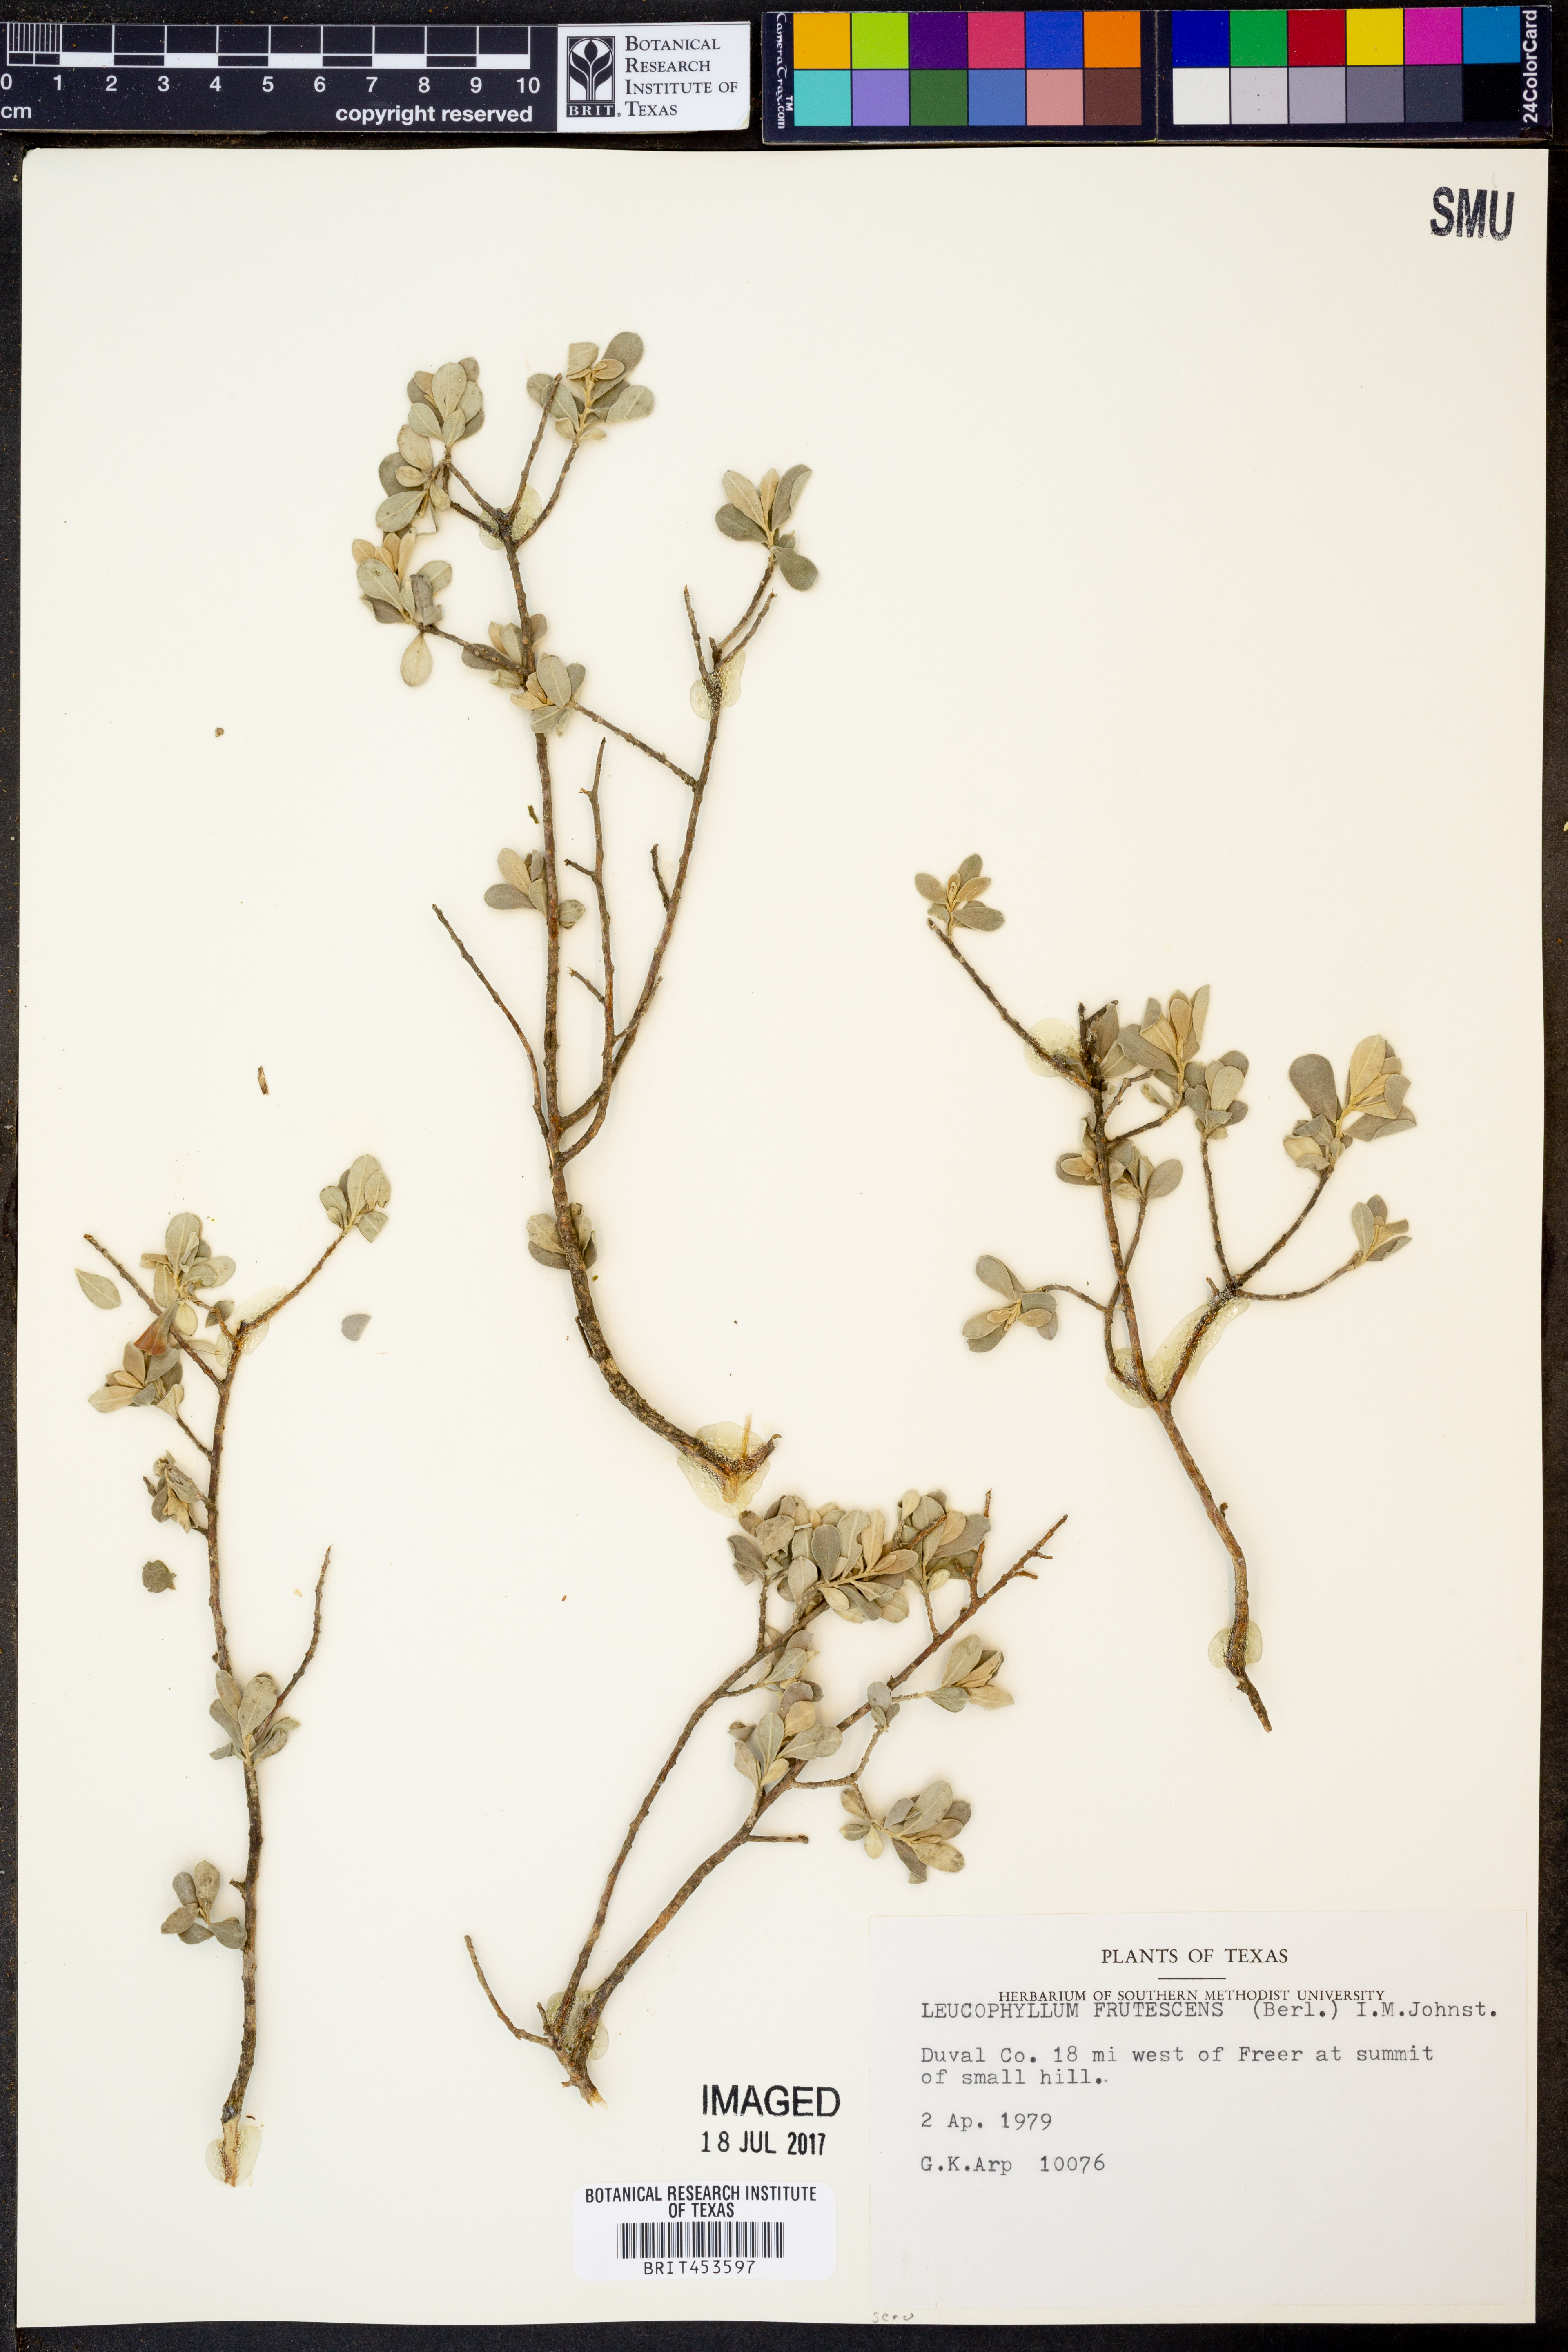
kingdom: Plantae
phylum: Tracheophyta
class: Magnoliopsida
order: Lamiales
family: Scrophulariaceae
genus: Leucophyllum
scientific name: Leucophyllum frutescens
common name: Texas silverleaf
